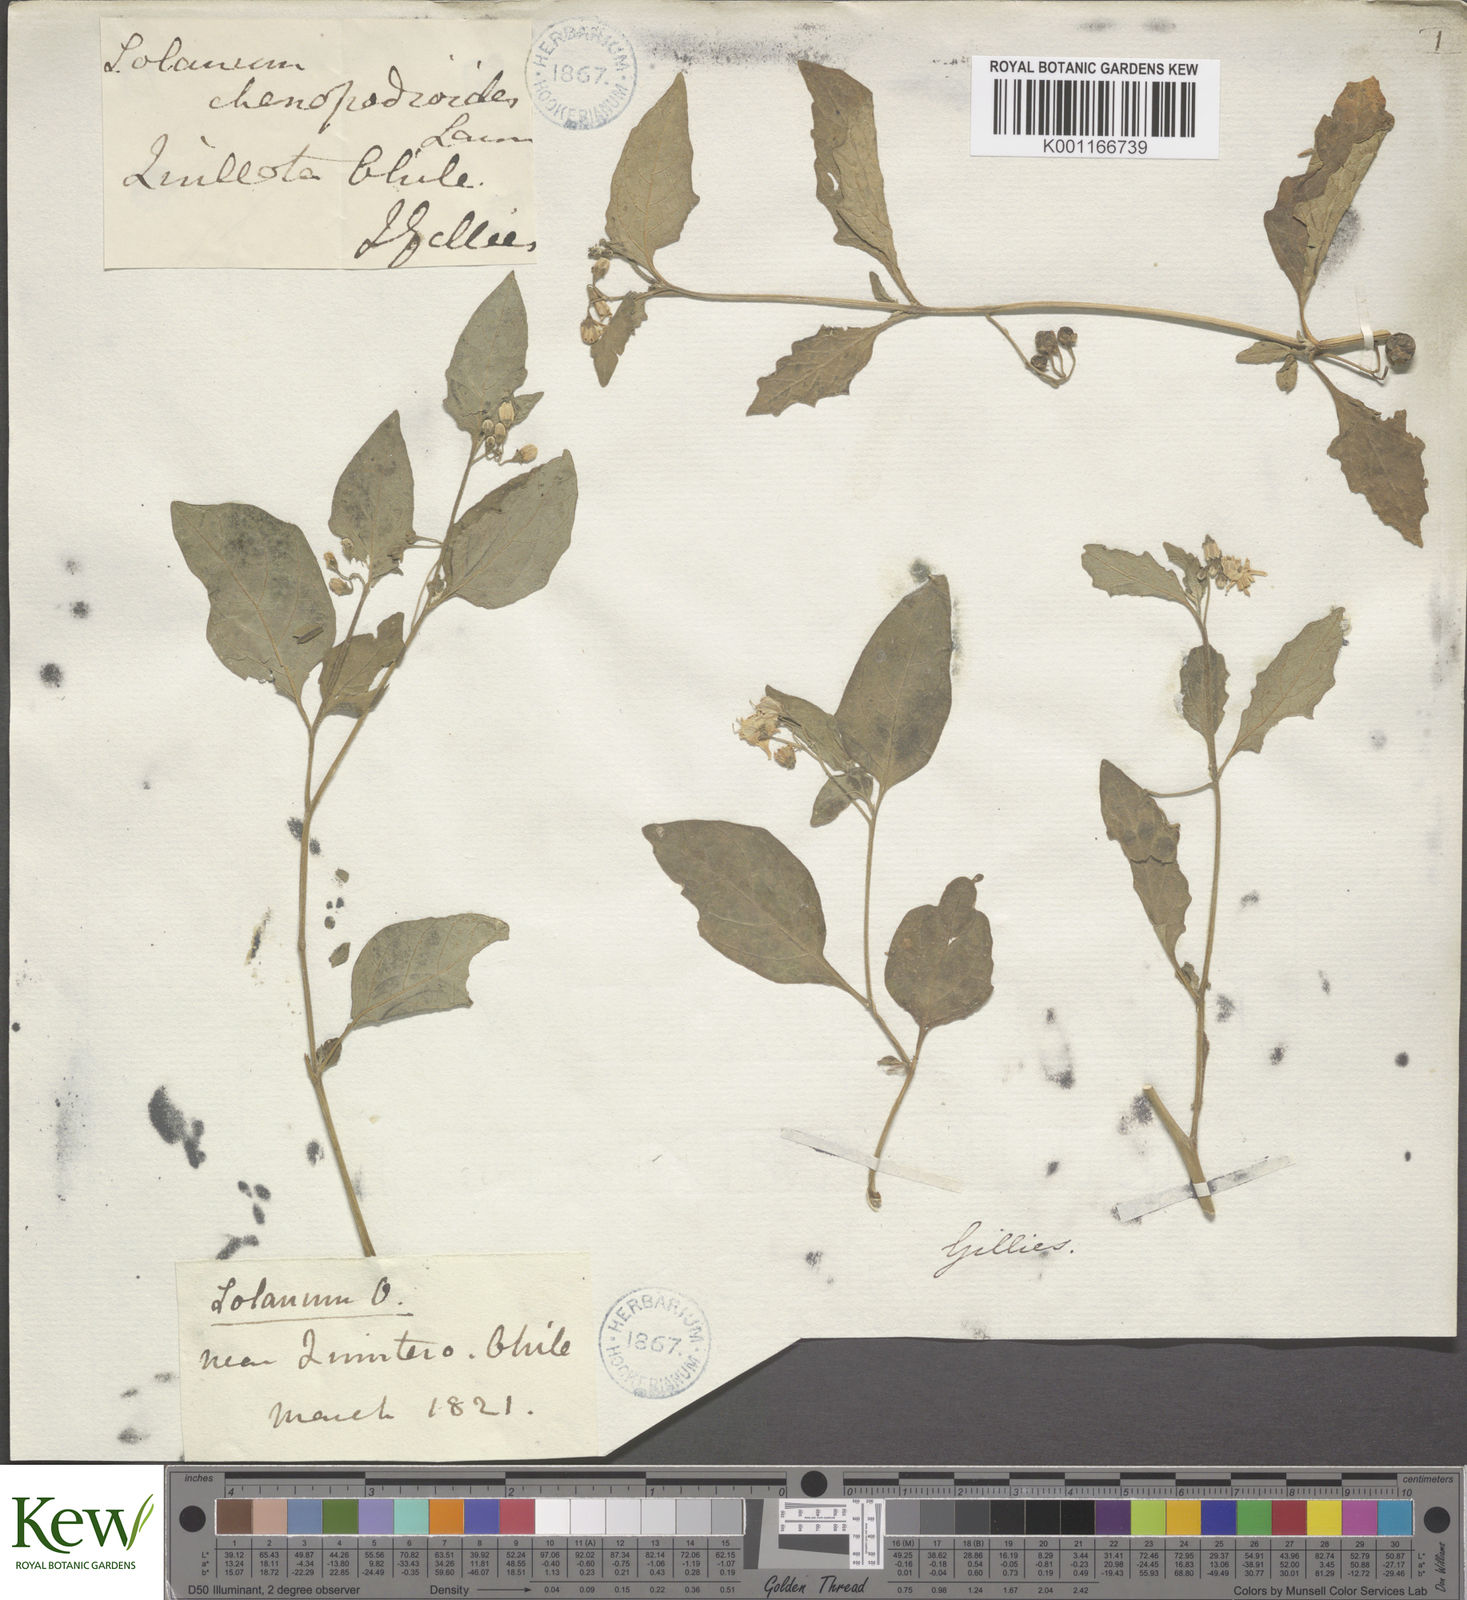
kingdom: Plantae
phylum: Tracheophyta
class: Magnoliopsida
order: Solanales
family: Solanaceae
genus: Solanum
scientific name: Solanum
